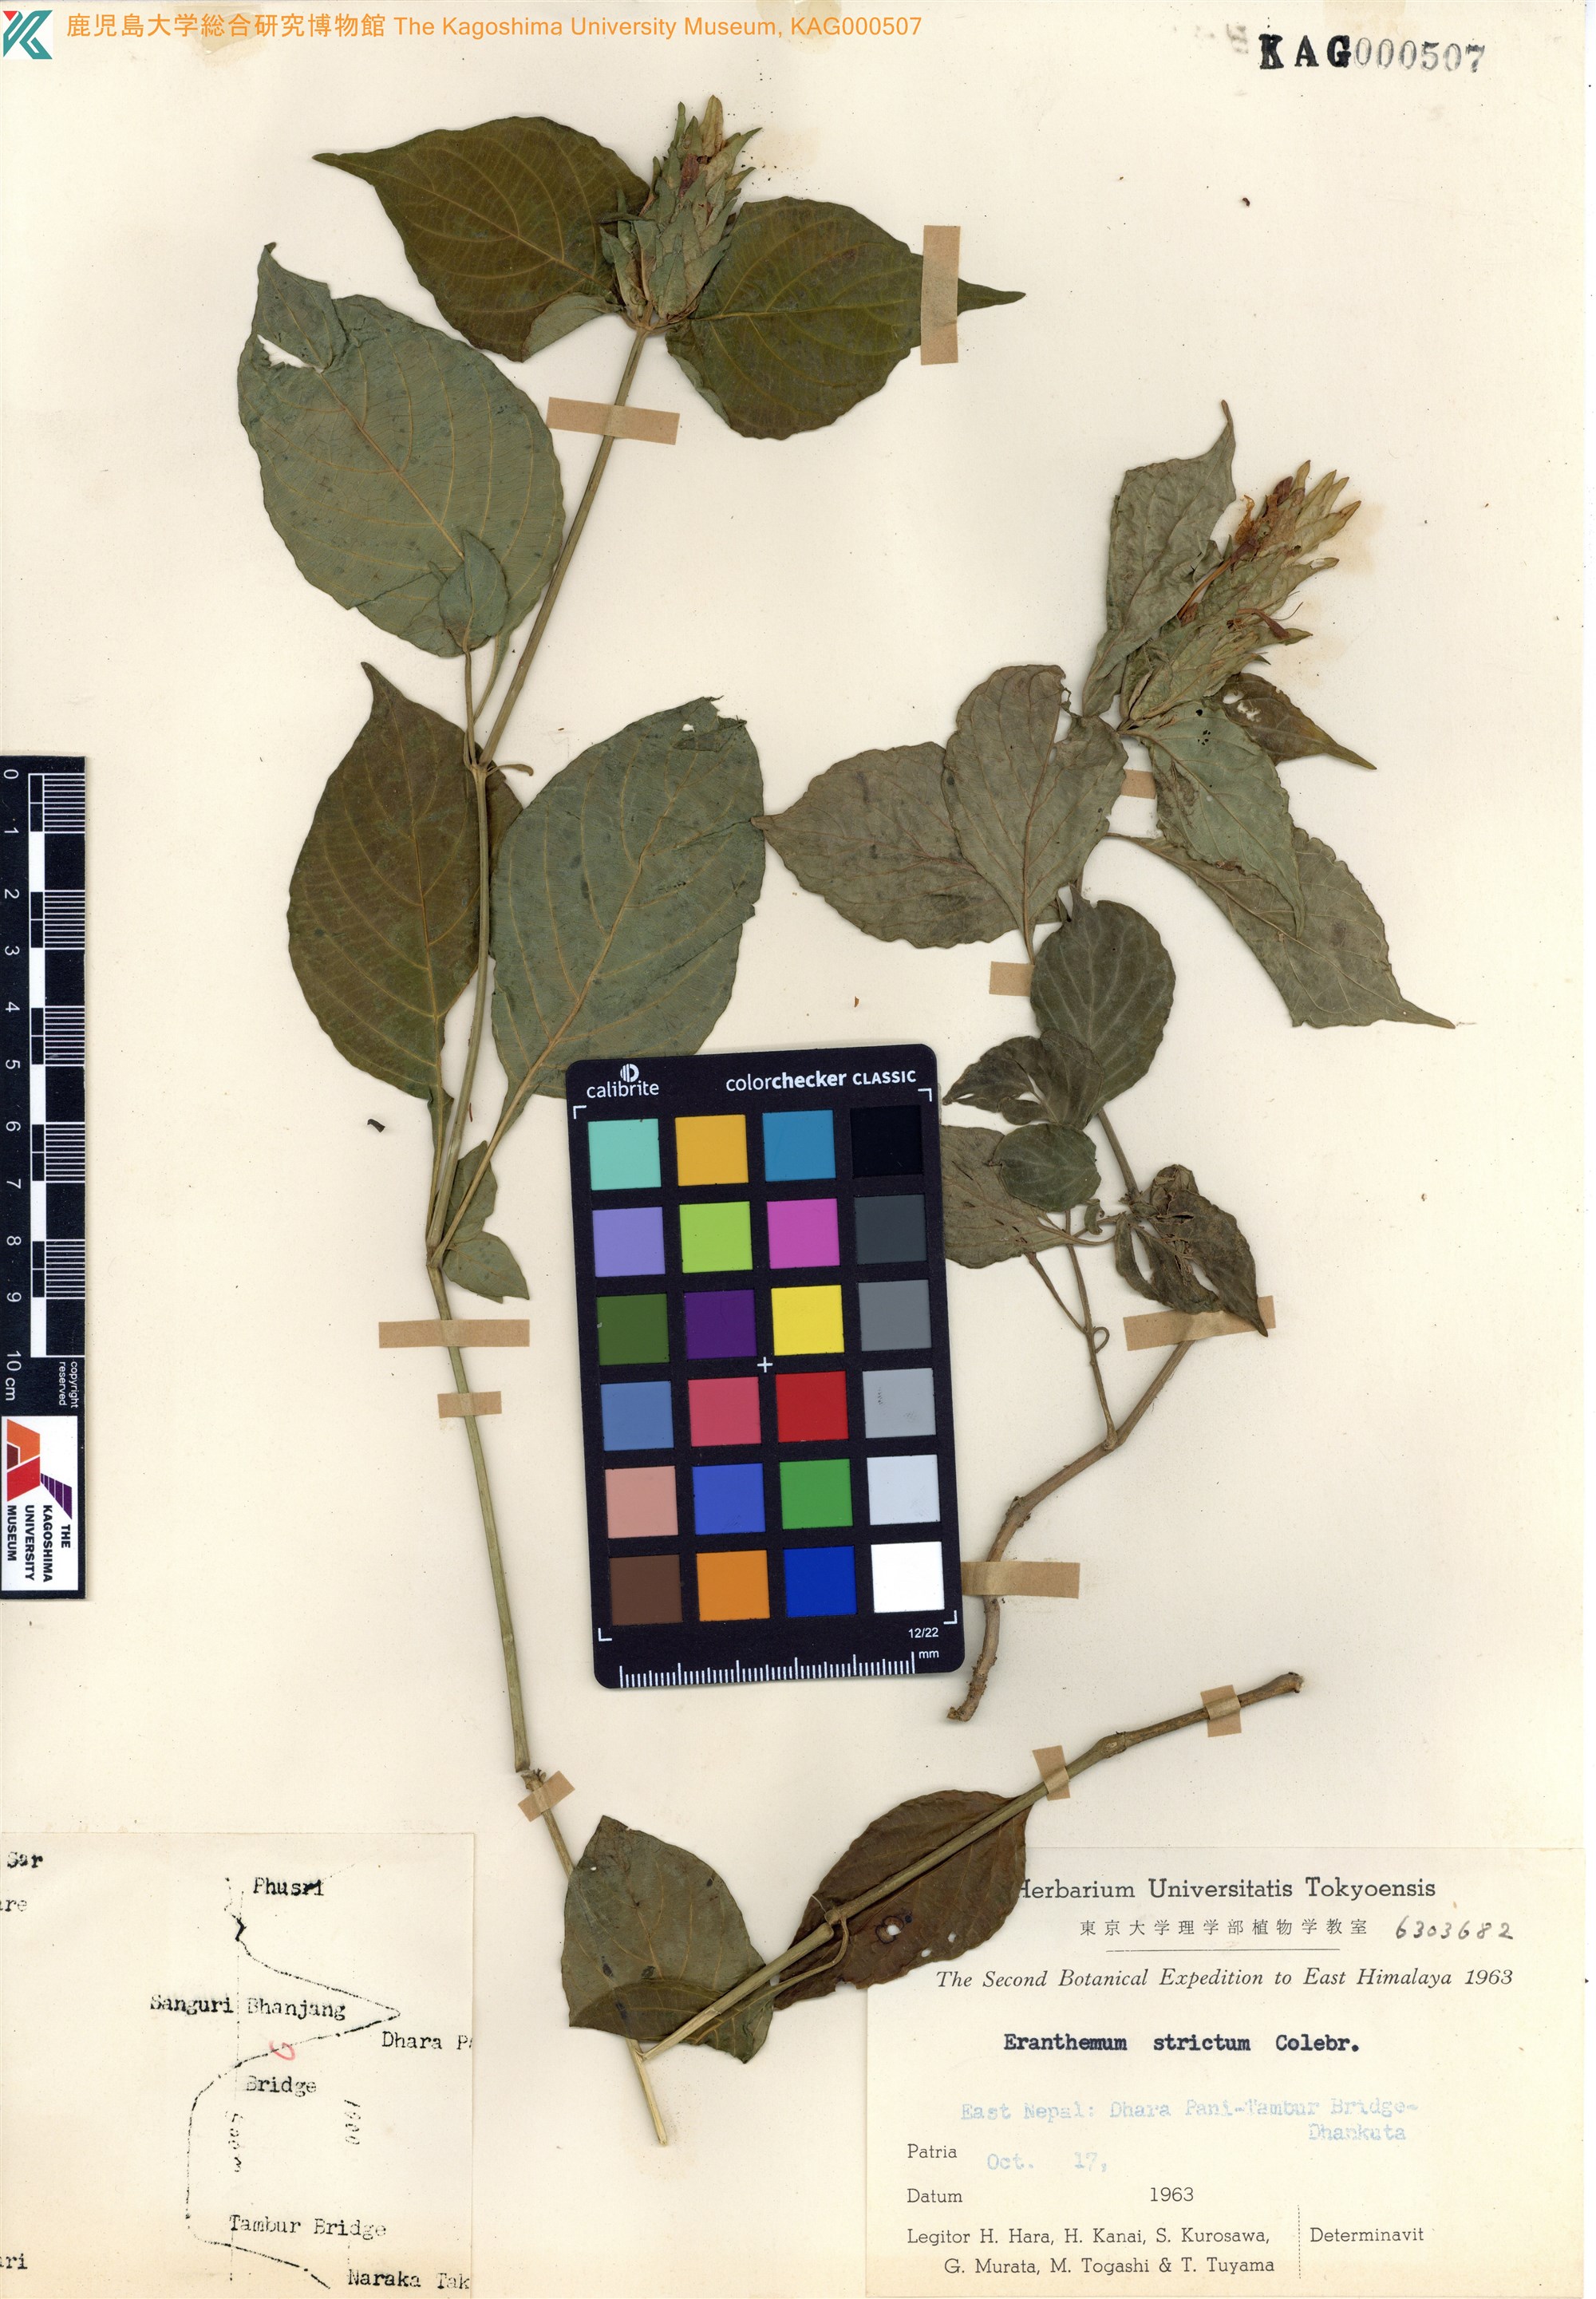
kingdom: Plantae
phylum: Tracheophyta
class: Magnoliopsida
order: Lamiales
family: Acanthaceae
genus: Eranthemum
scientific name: Eranthemum strictum
